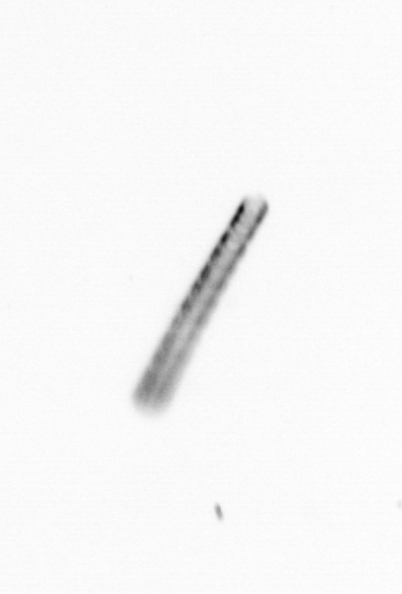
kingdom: Chromista
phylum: Ochrophyta
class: Bacillariophyceae
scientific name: Bacillariophyceae
